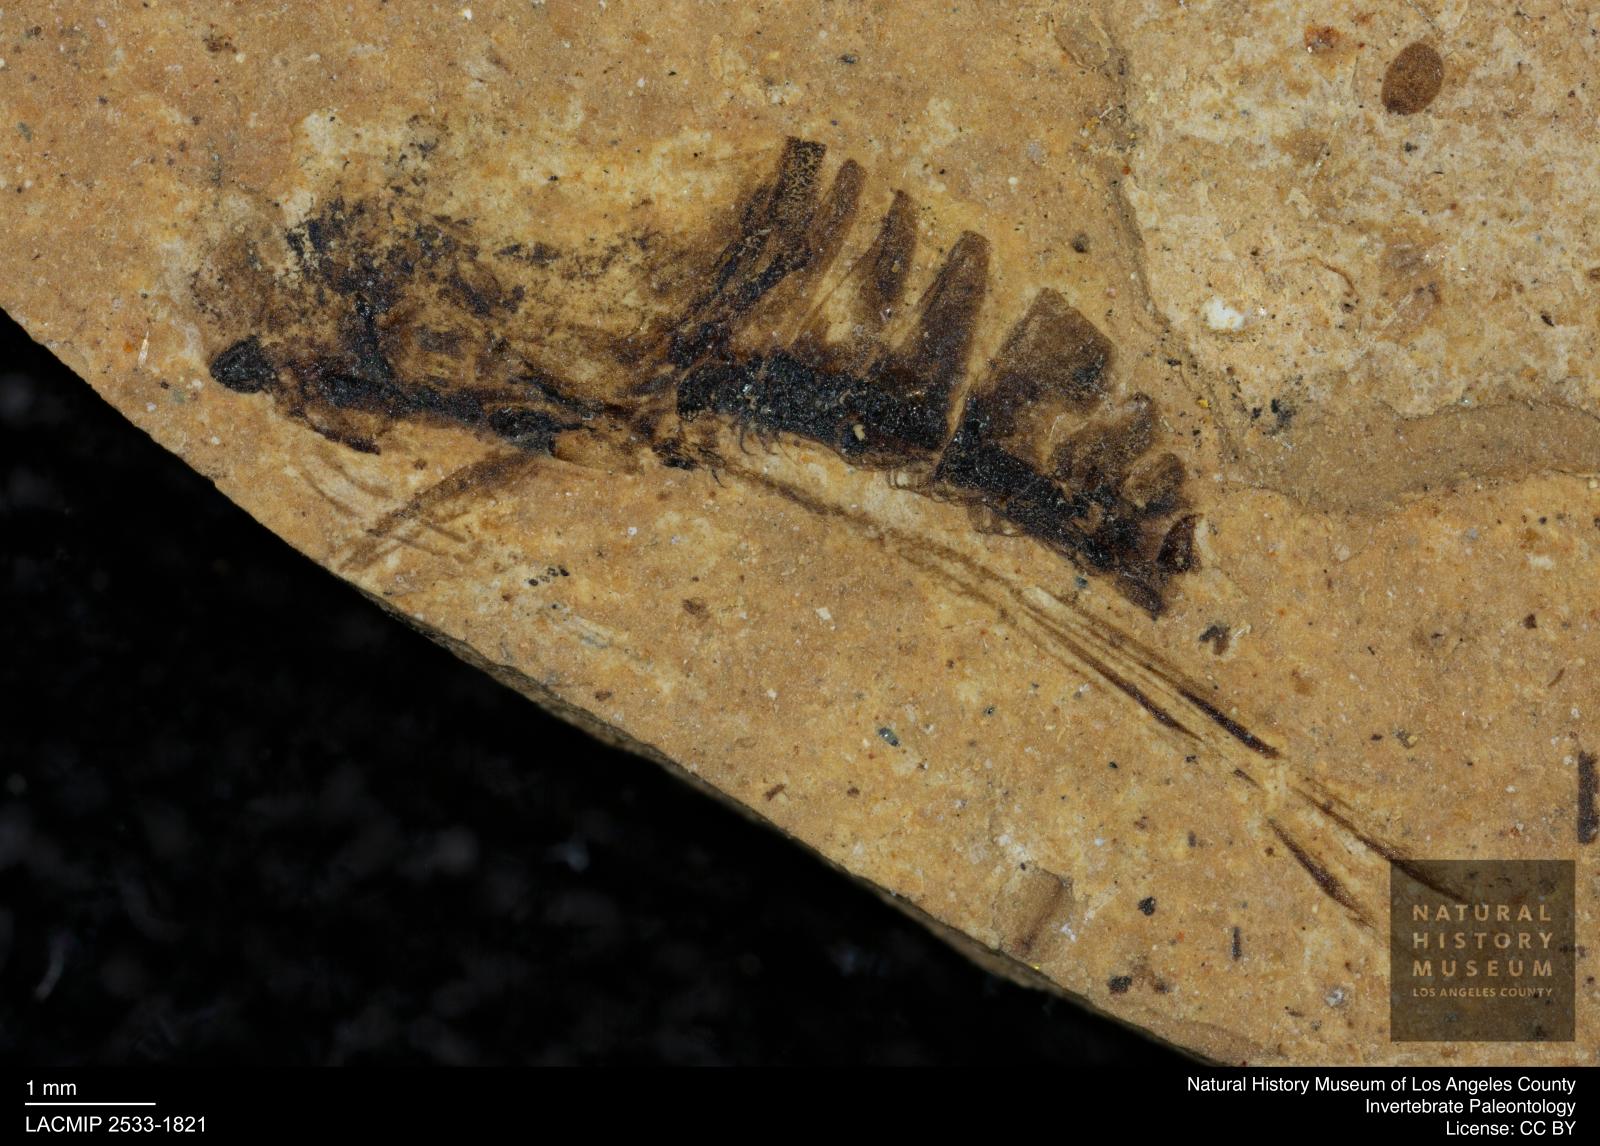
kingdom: Animalia
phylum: Arthropoda
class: Insecta
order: Hemiptera
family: Notonectidae
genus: Notonecta
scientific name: Notonecta
